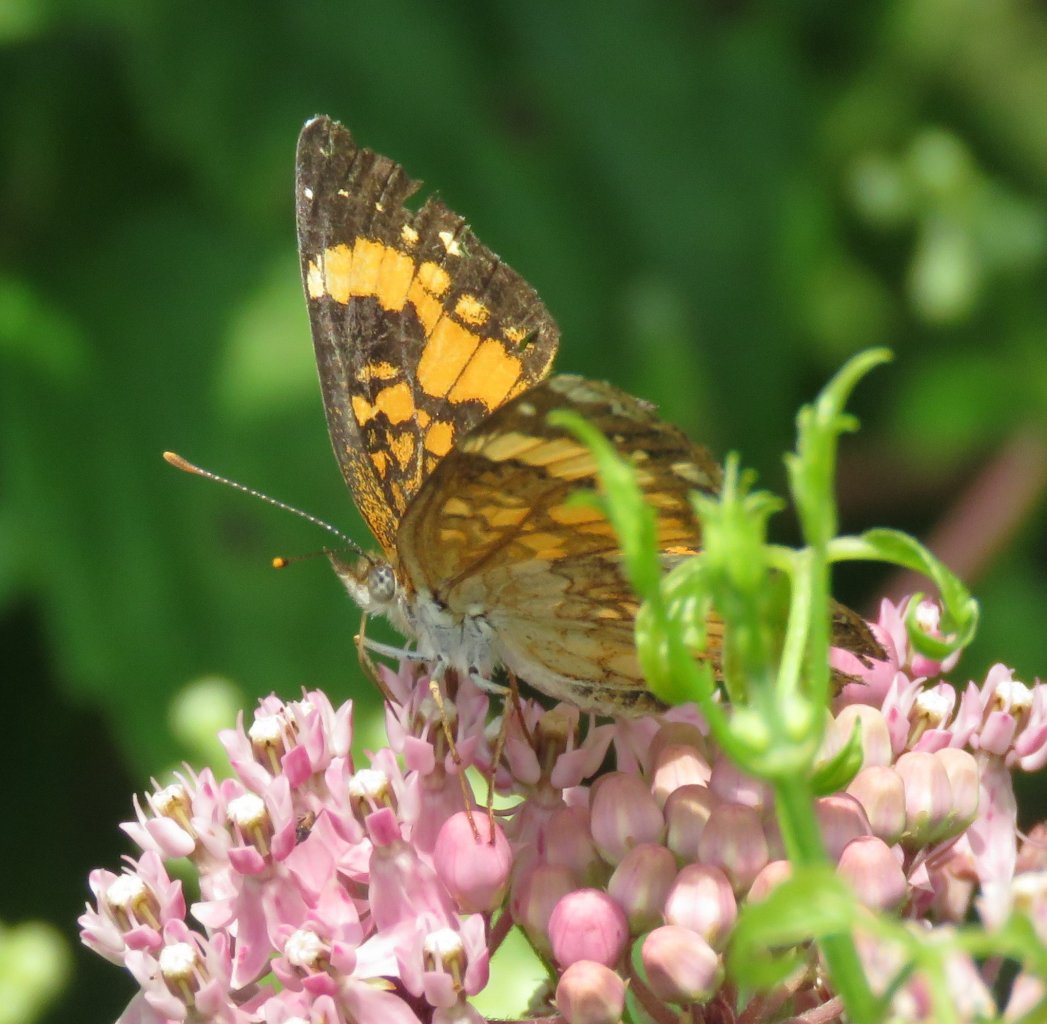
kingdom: Animalia
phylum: Arthropoda
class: Insecta
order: Lepidoptera
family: Nymphalidae
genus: Chlosyne
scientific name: Chlosyne nycteis
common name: Silvery Checkerspot
